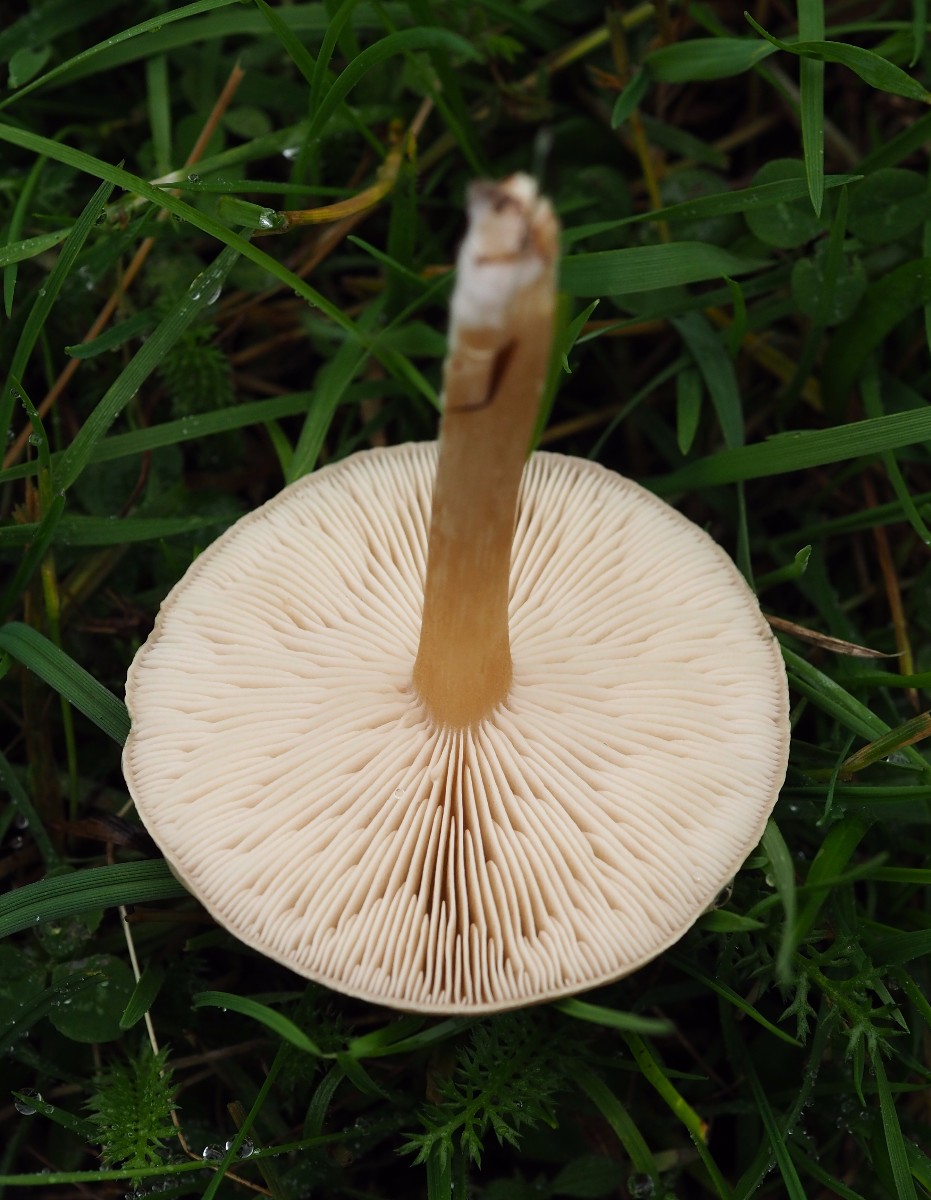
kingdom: Fungi
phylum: Basidiomycota
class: Agaricomycetes
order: Agaricales
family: Tricholomataceae
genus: Melanoleuca
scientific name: Melanoleuca
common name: munkehat
